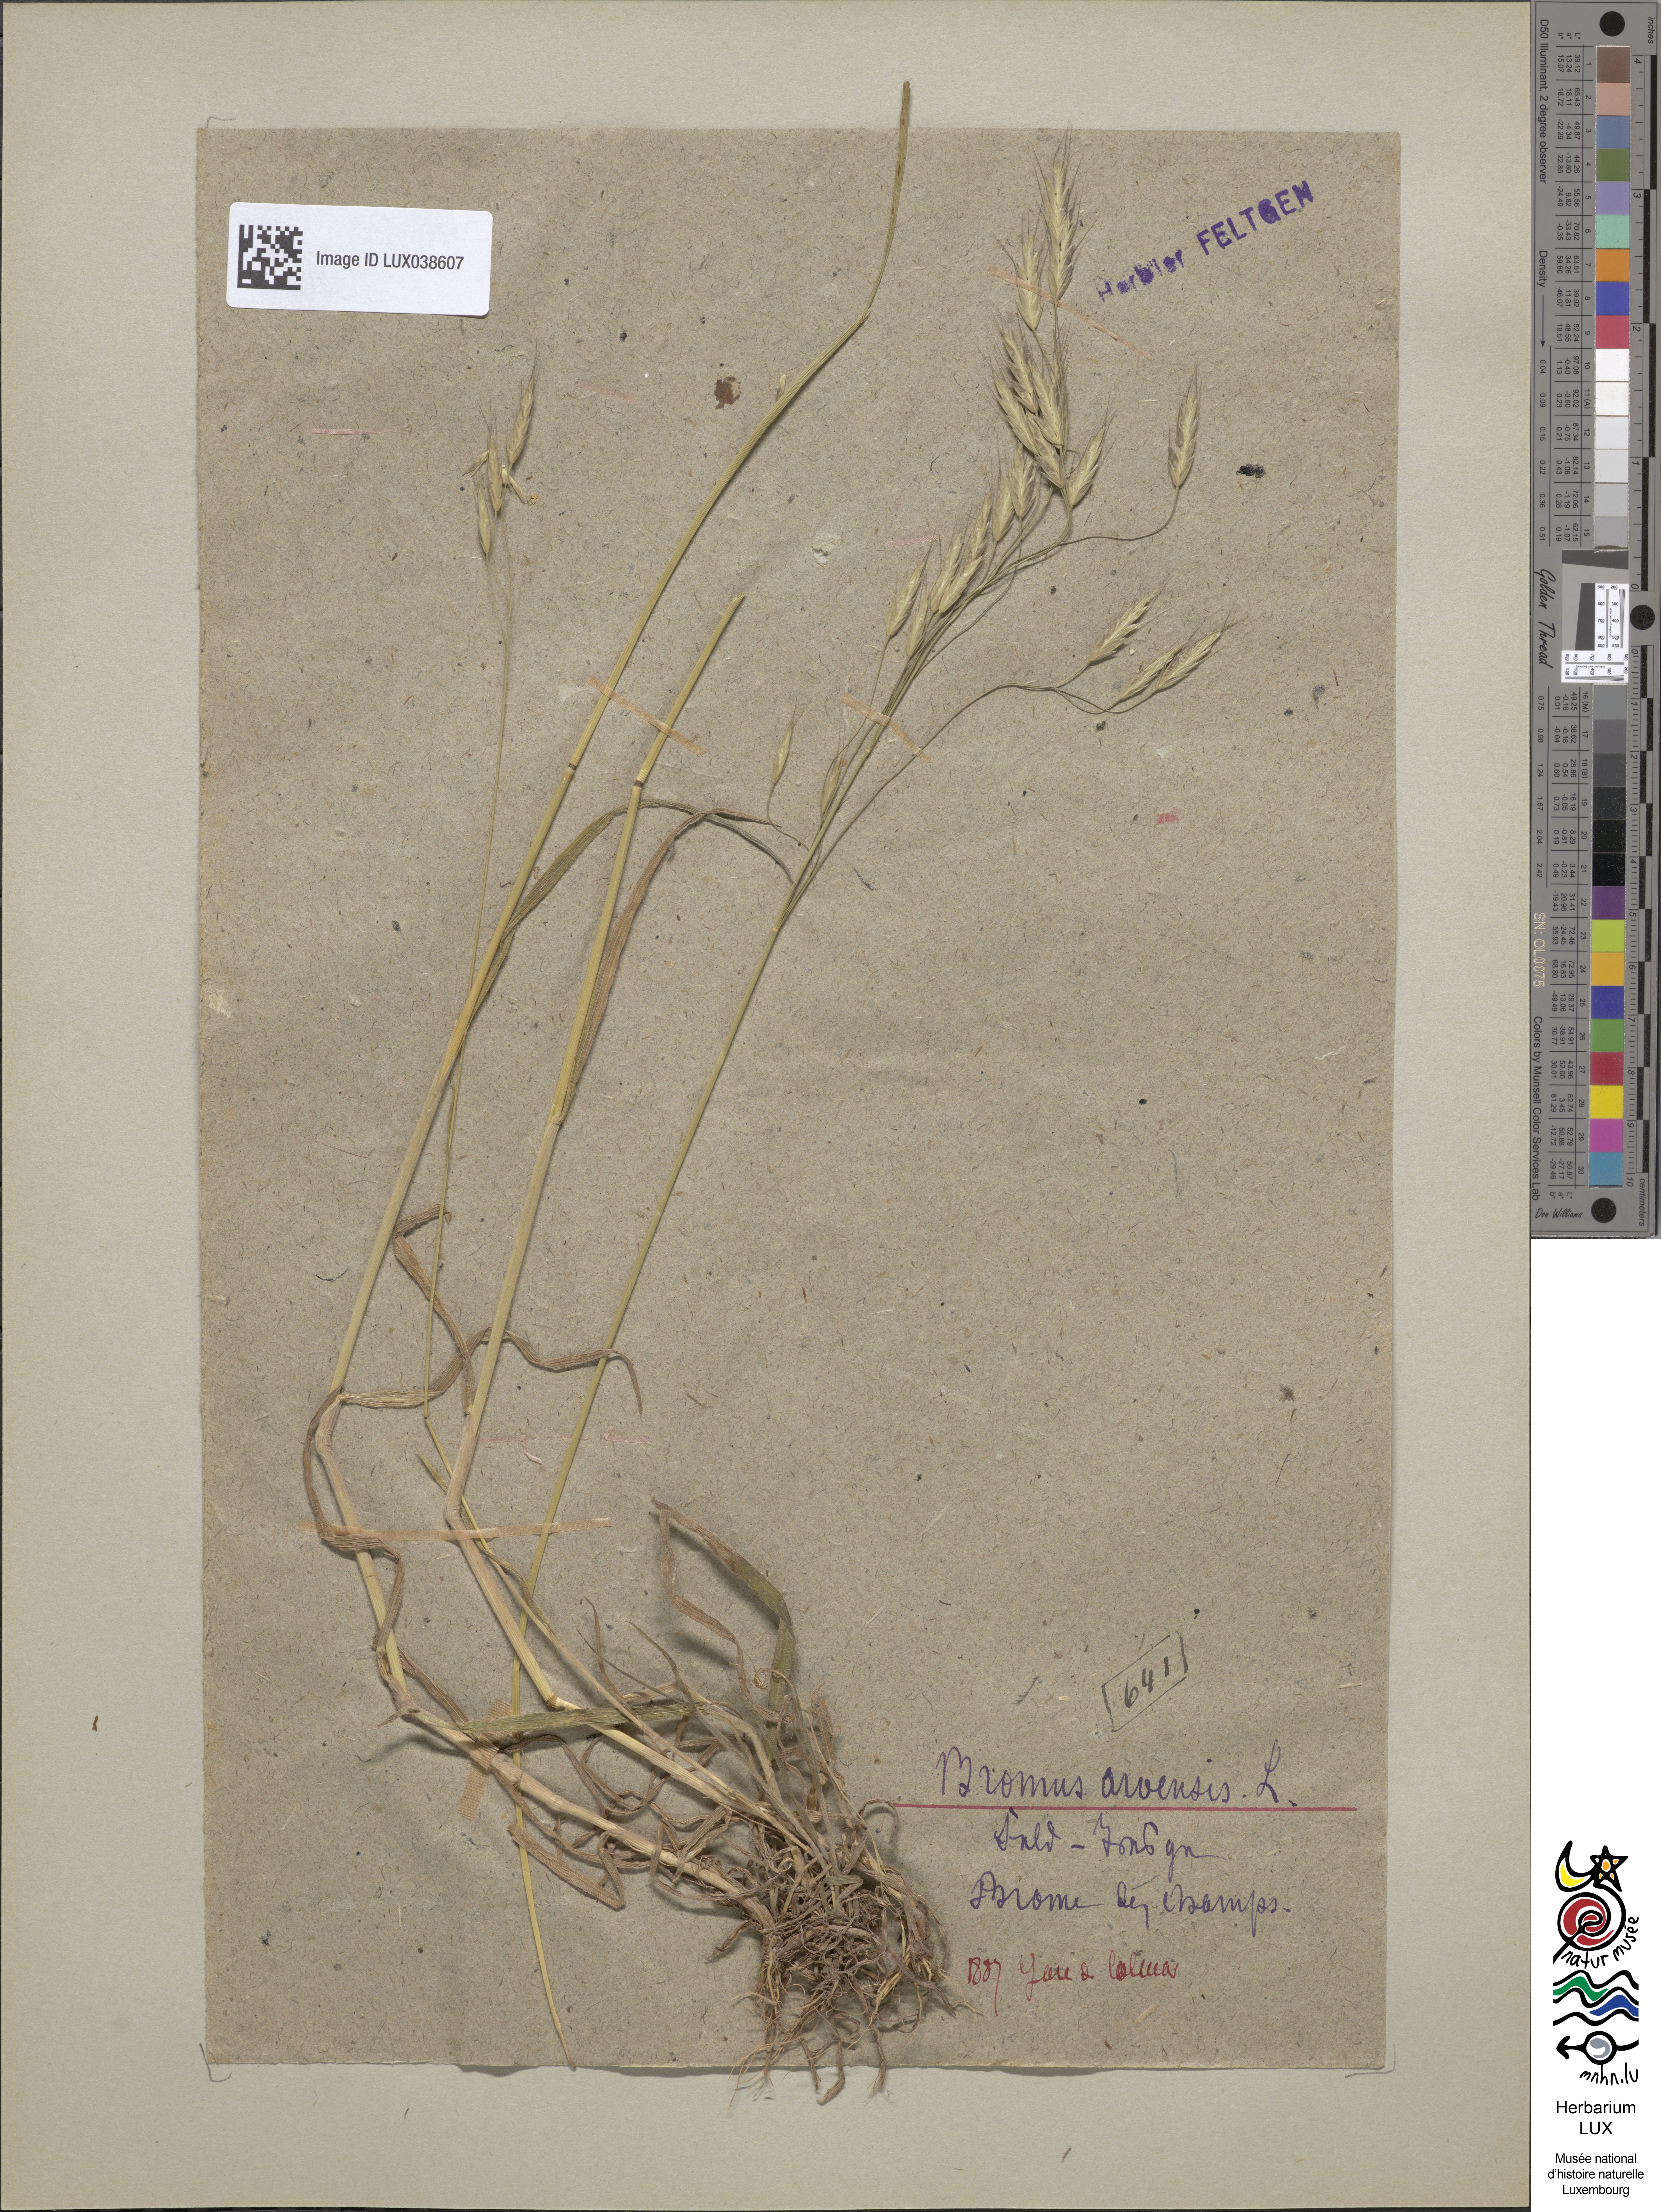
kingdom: Plantae
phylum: Tracheophyta
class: Liliopsida
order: Poales
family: Poaceae
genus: Bromus
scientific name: Bromus arvensis
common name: Field brome
